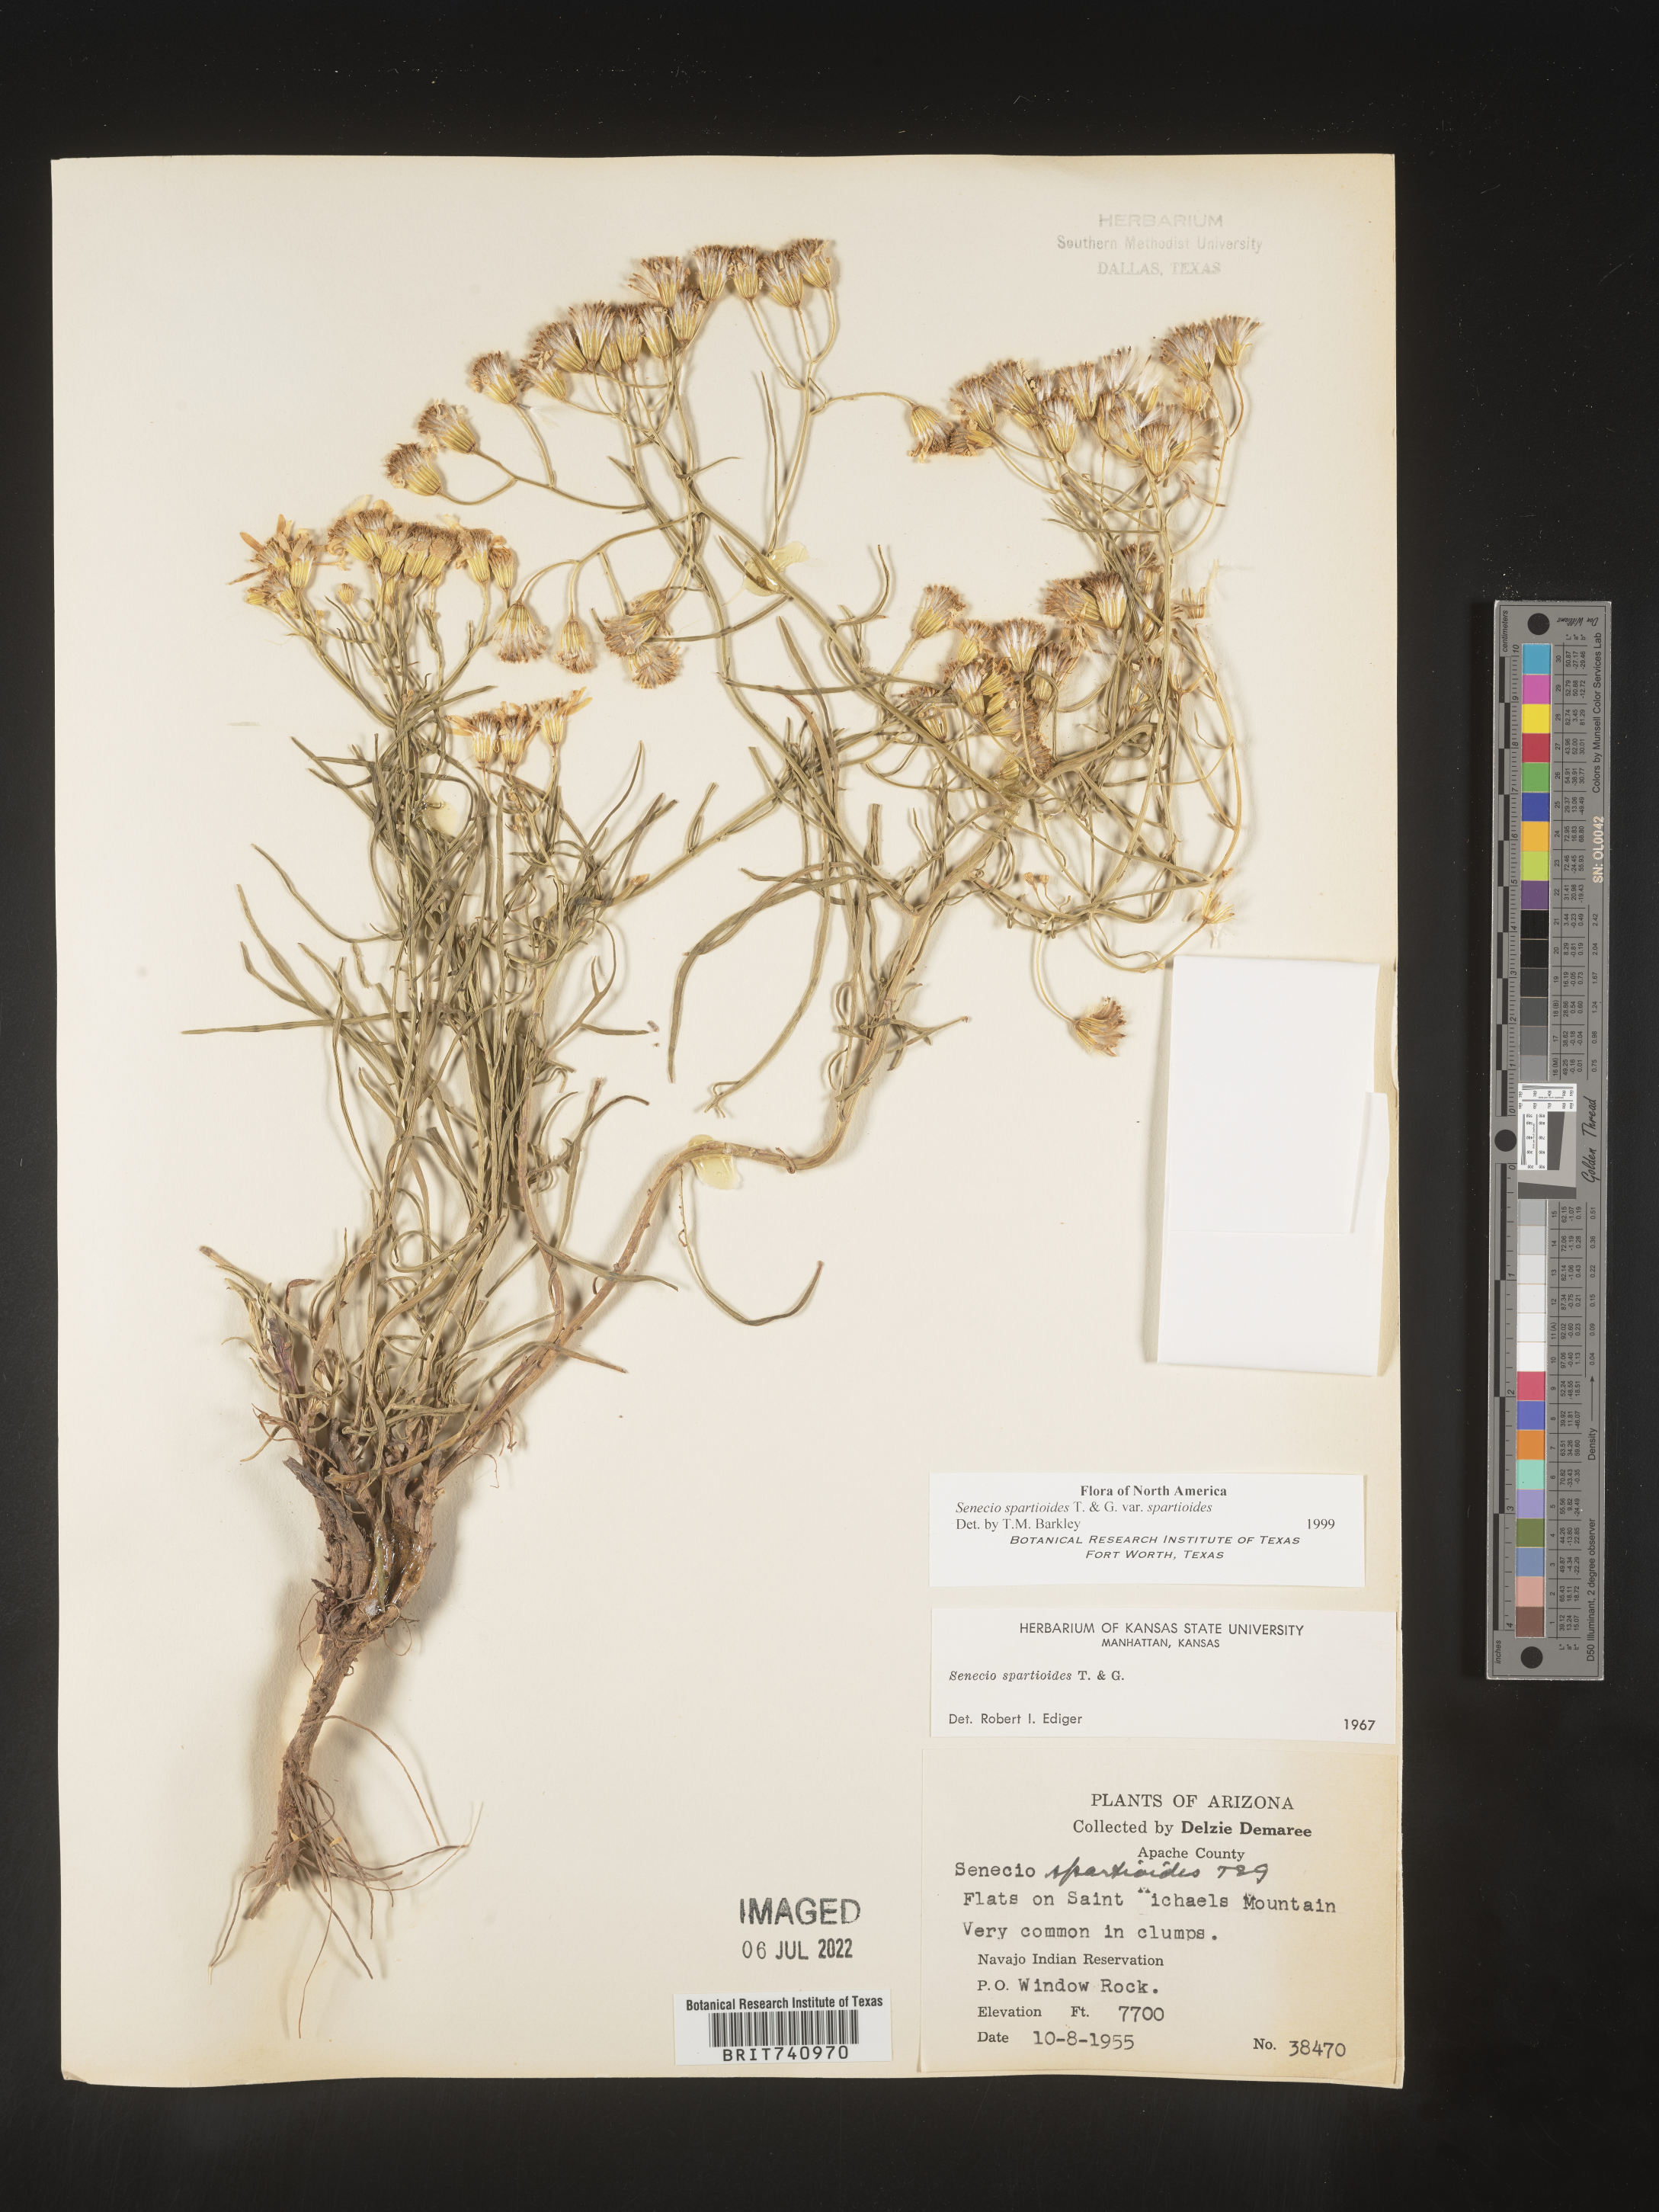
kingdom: Plantae
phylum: Tracheophyta
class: Magnoliopsida
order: Asterales
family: Asteraceae
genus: Senecio
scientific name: Senecio spartioides
